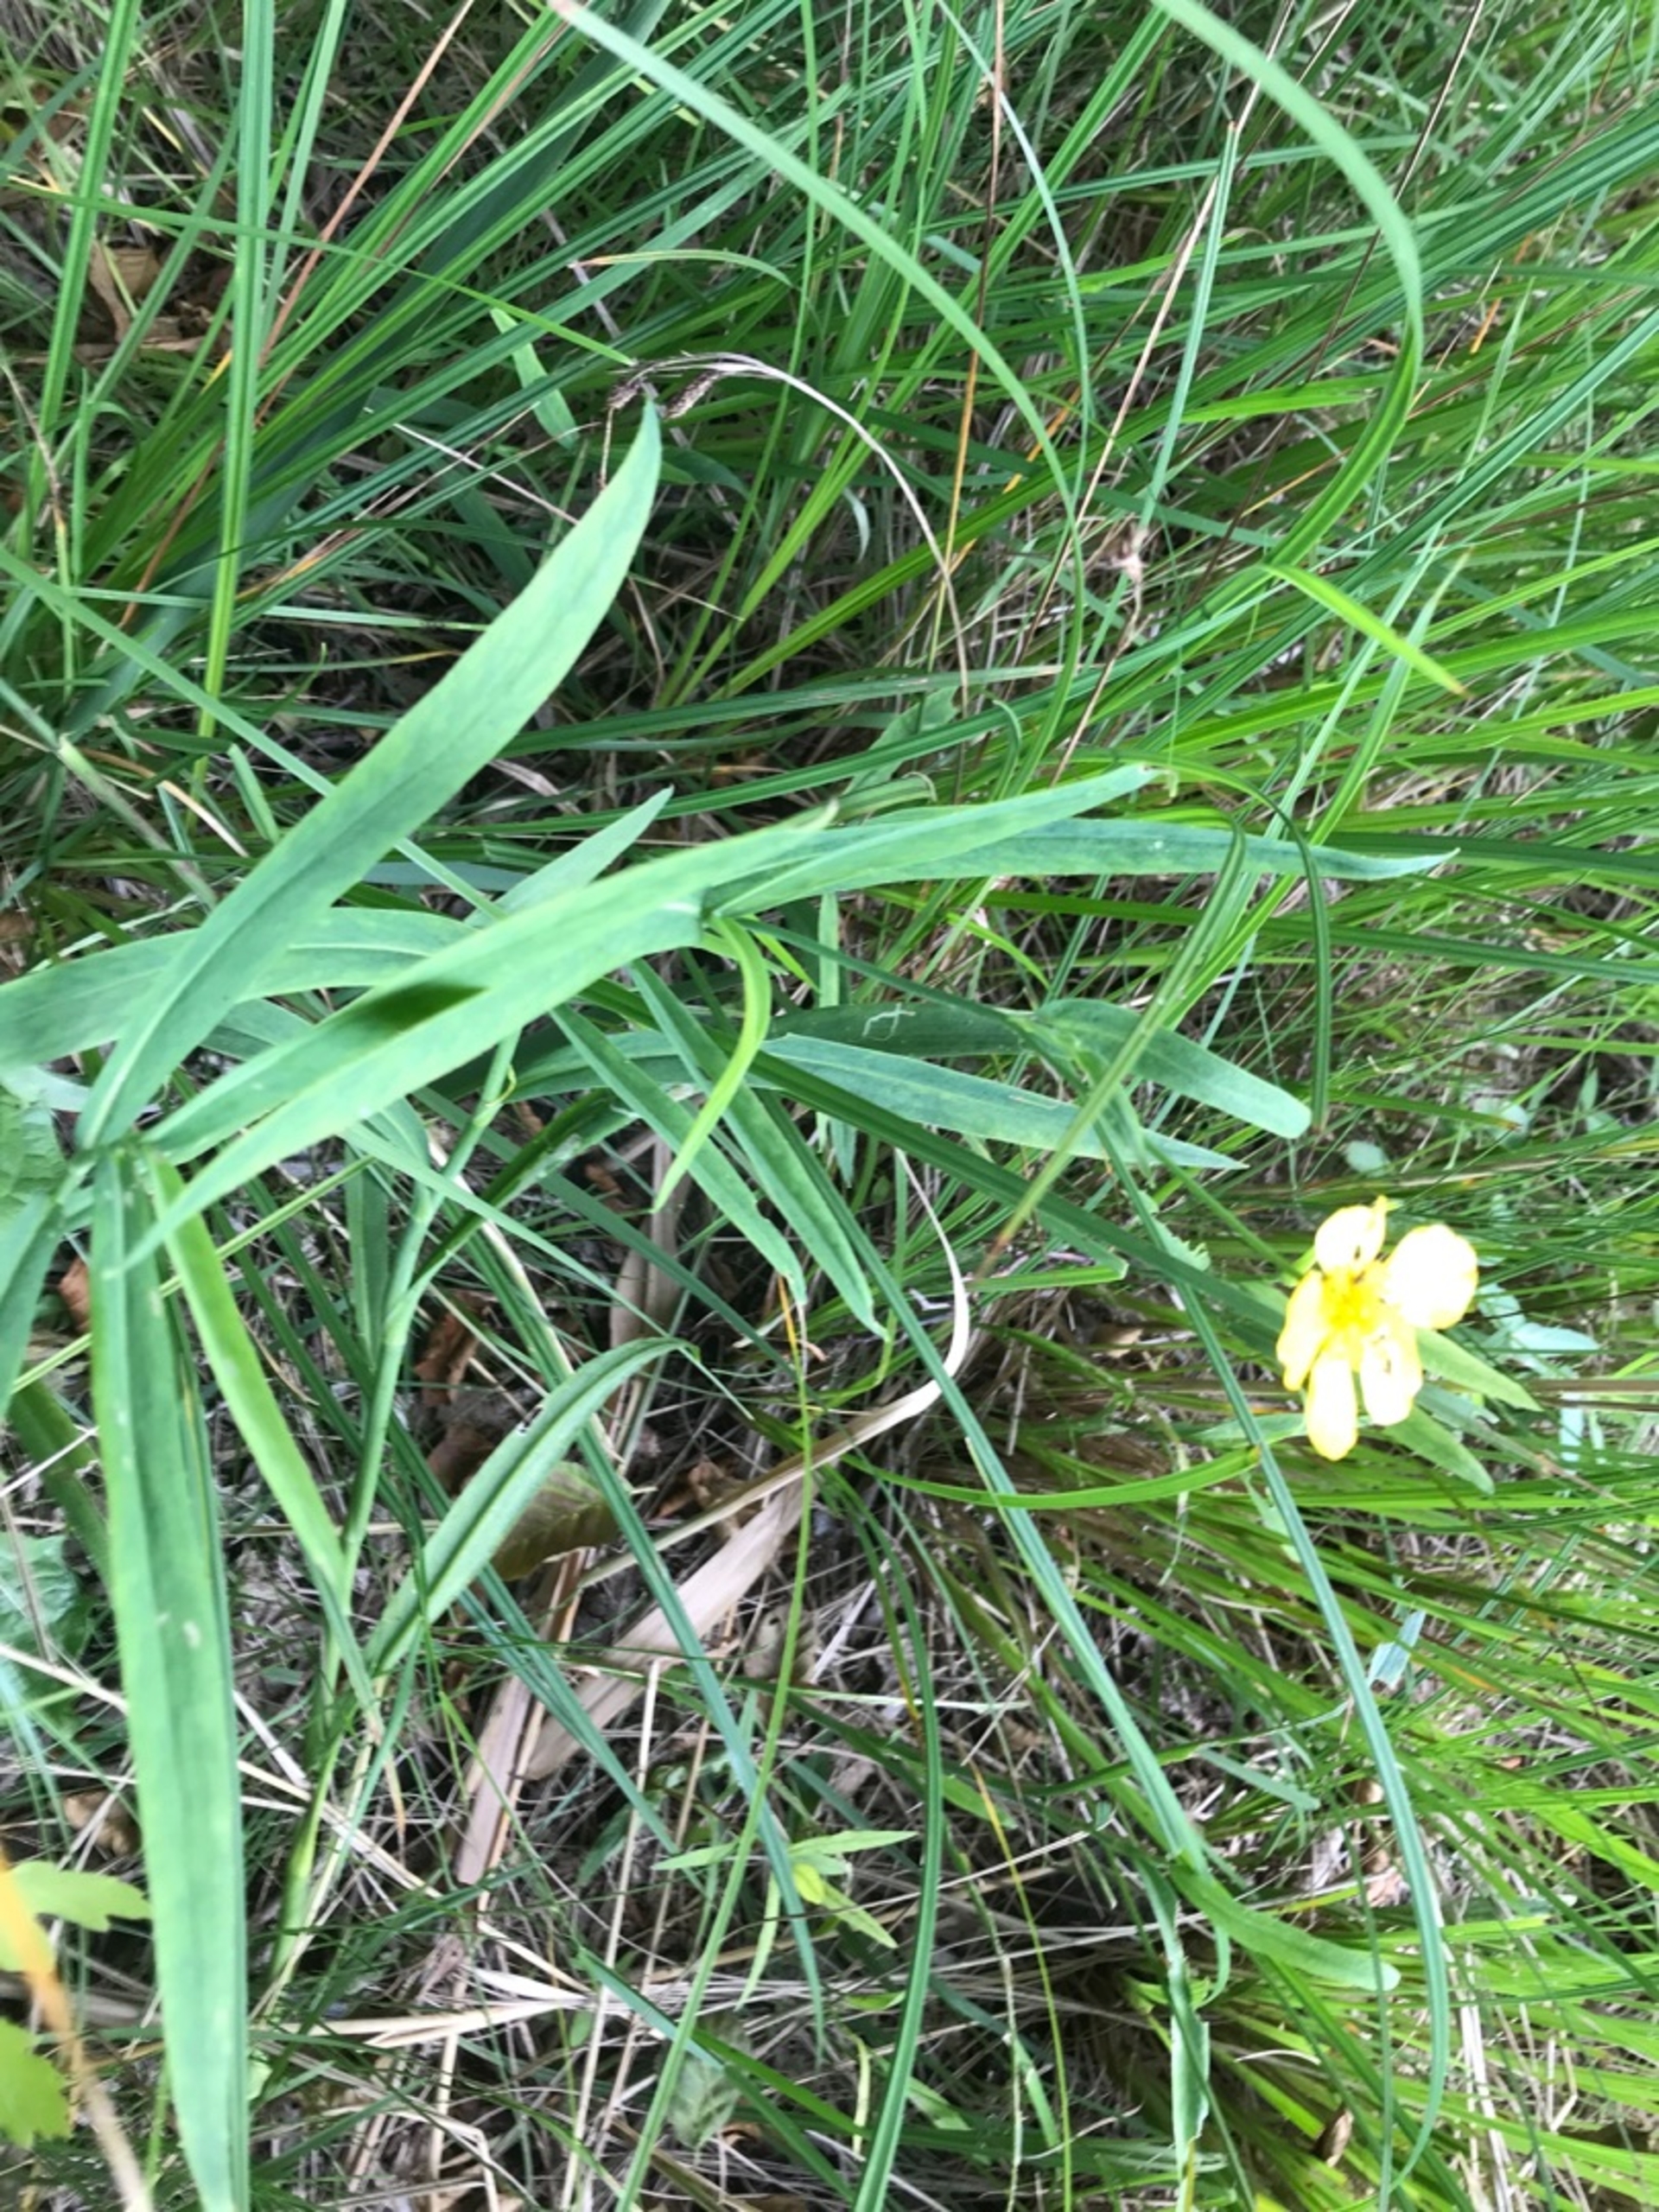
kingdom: Plantae
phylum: Tracheophyta
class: Magnoliopsida
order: Ranunculales
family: Ranunculaceae
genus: Ranunculus
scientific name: Ranunculus lingua
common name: Langbladet ranunkel
